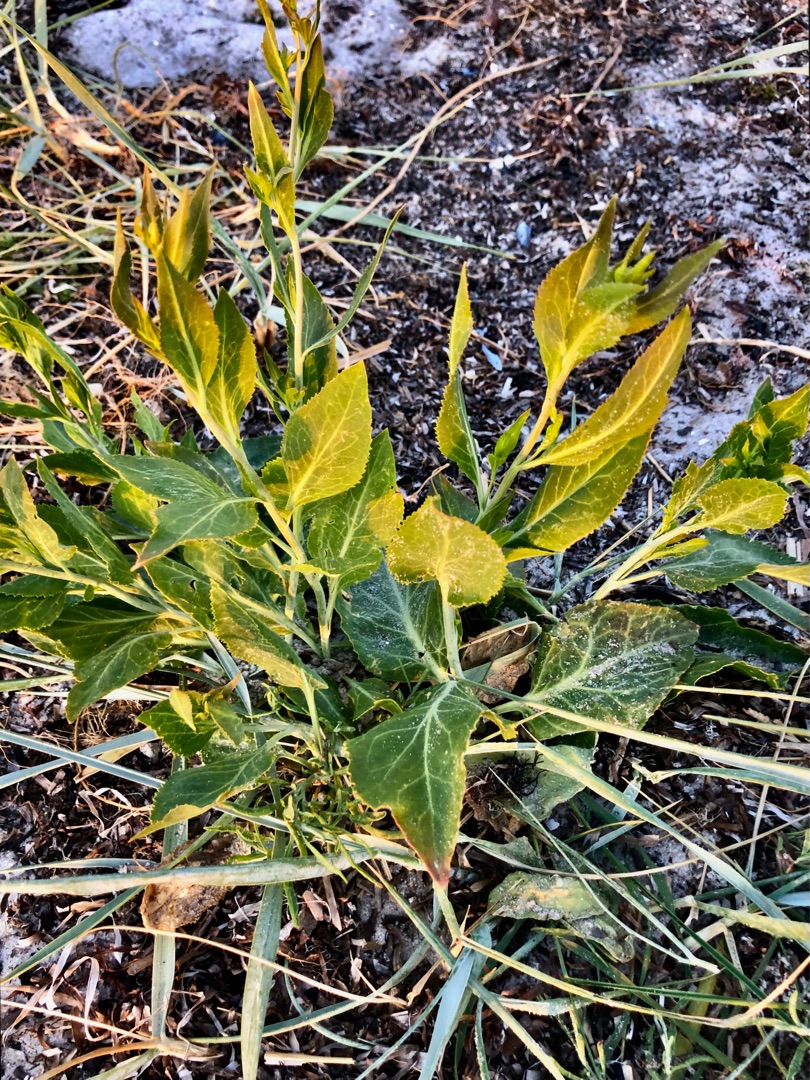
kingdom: Plantae
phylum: Tracheophyta
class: Magnoliopsida
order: Brassicales
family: Brassicaceae
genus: Lepidium
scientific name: Lepidium latifolium
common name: Strand-karse
